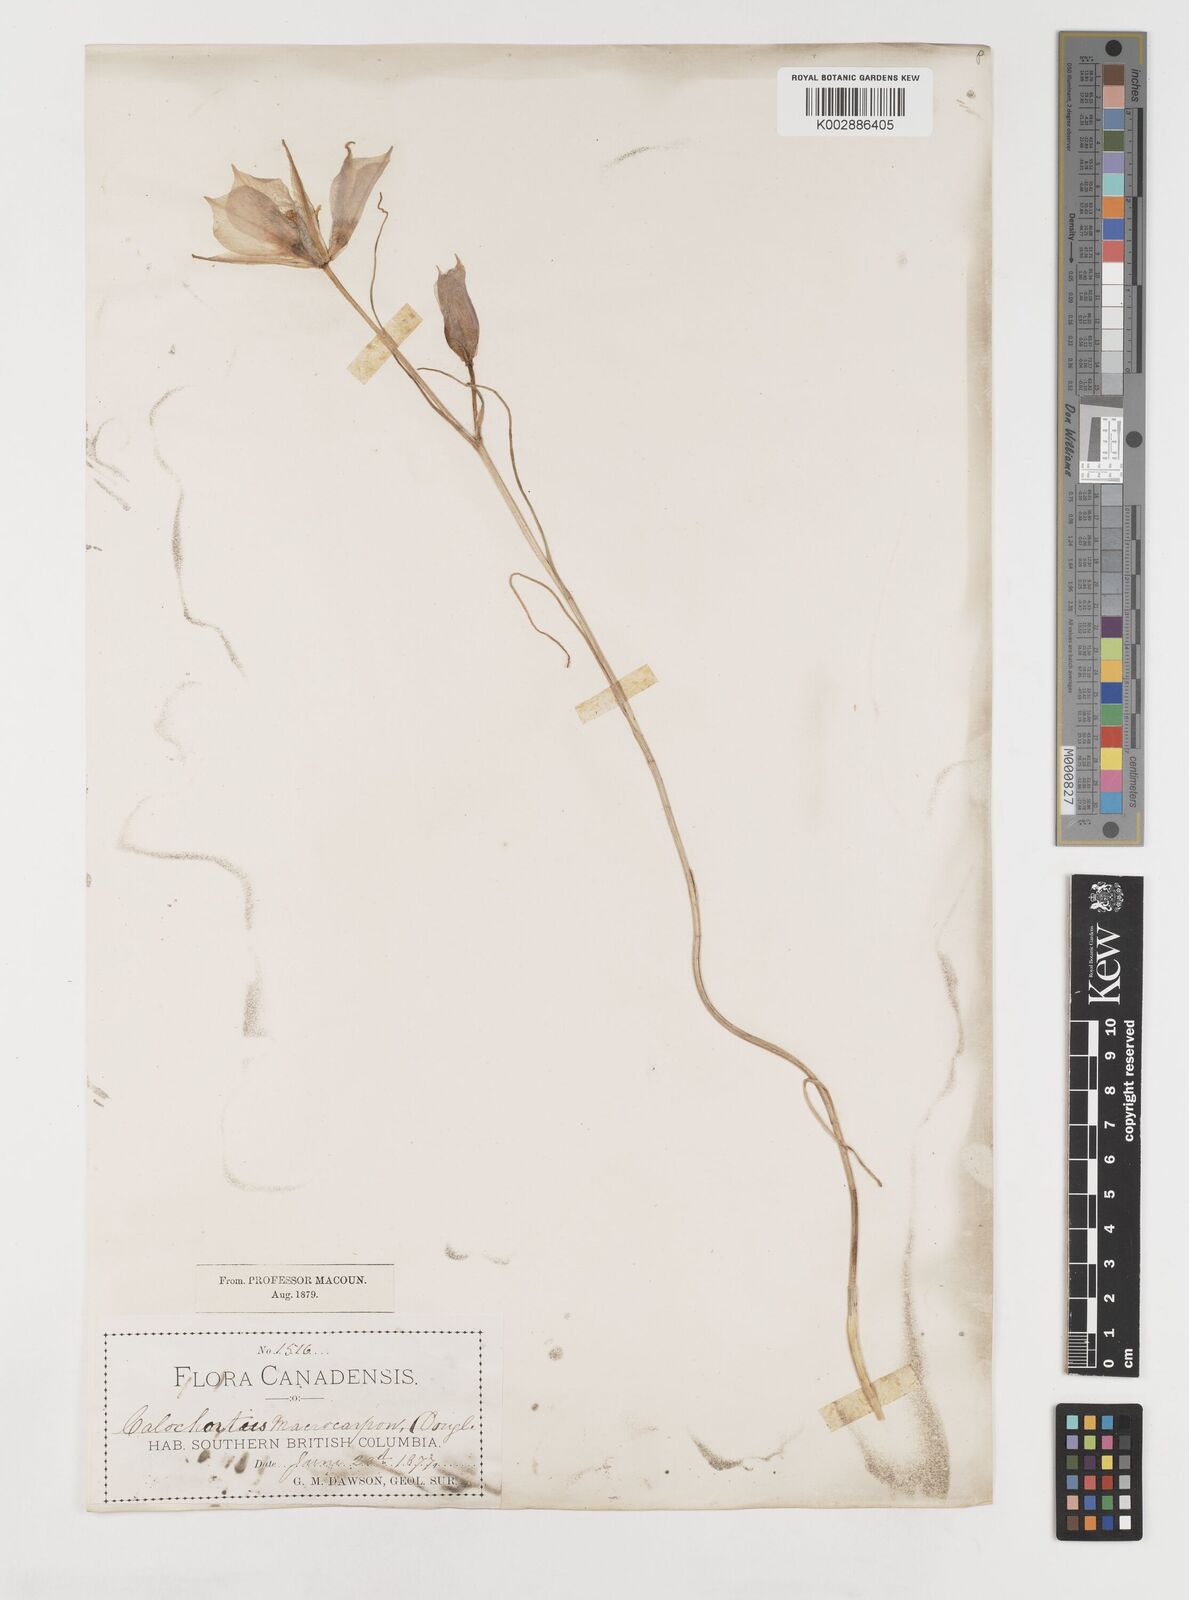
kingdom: Plantae
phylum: Tracheophyta
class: Liliopsida
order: Liliales
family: Liliaceae
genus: Calochortus
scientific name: Calochortus macrocarpus
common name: Green-band mariposa lily
